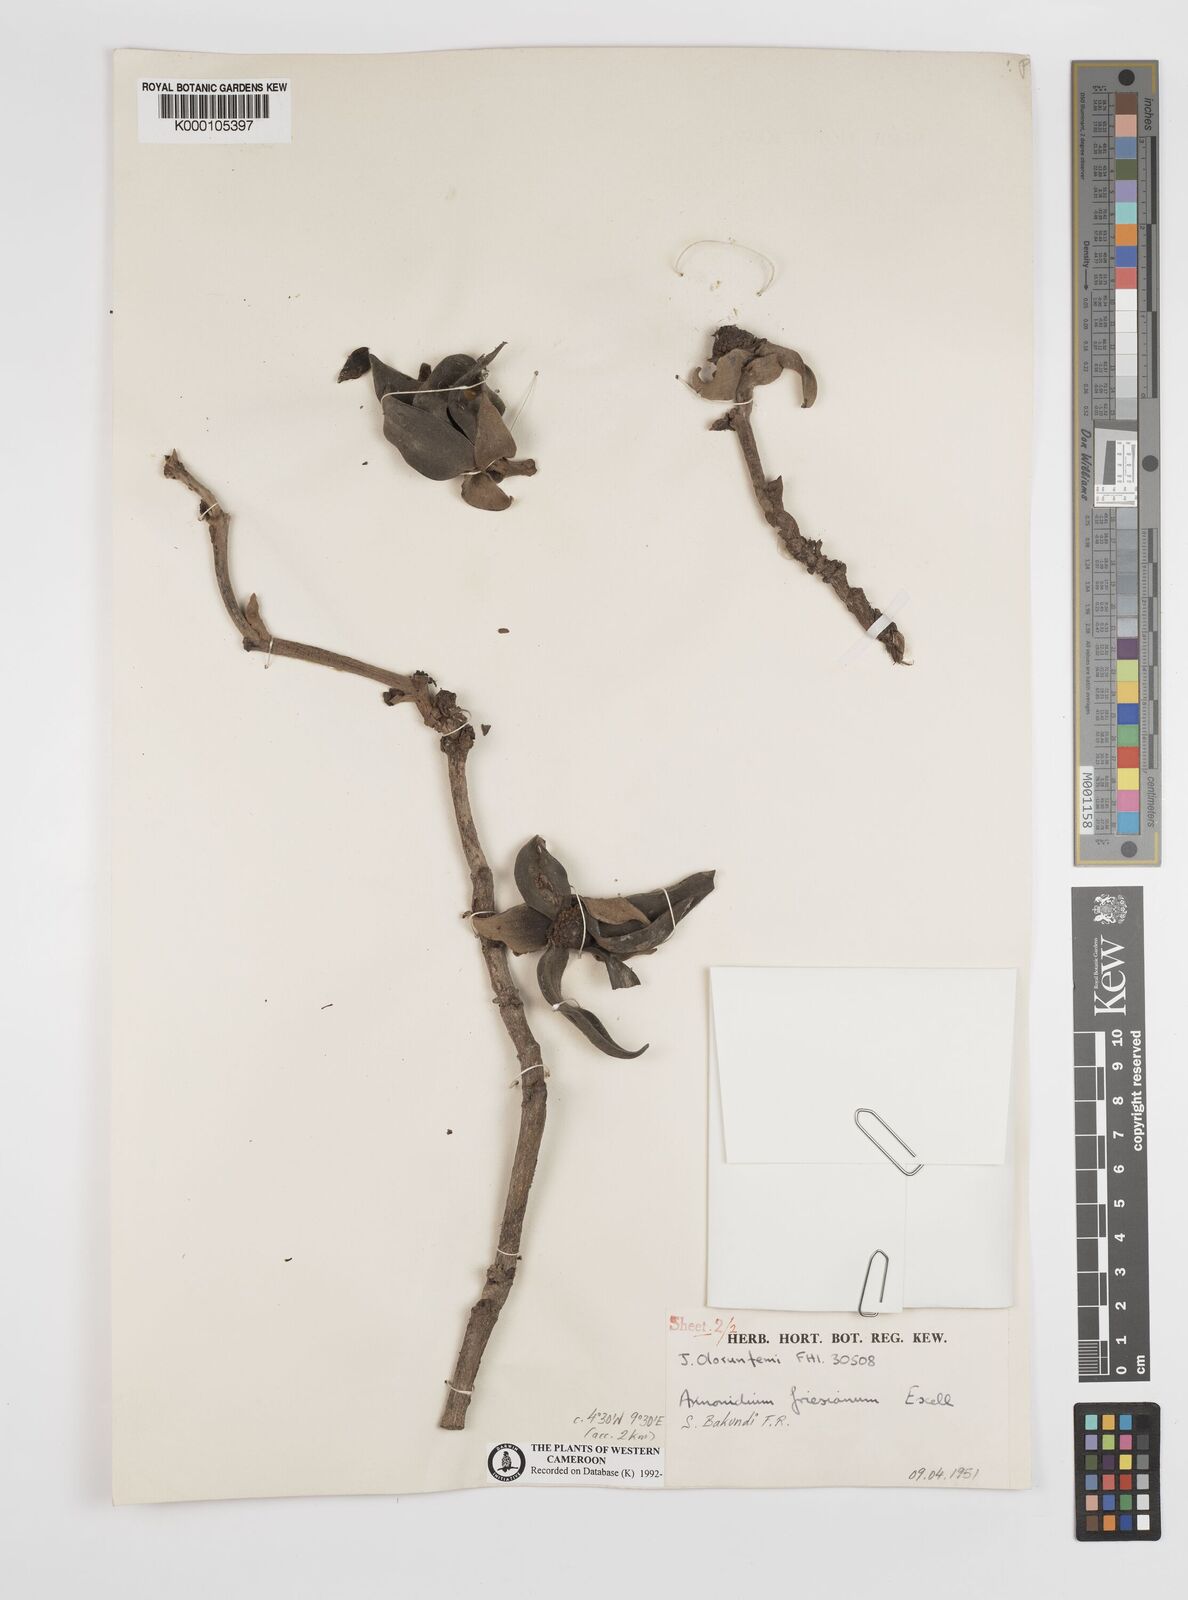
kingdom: Plantae
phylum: Tracheophyta
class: Magnoliopsida
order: Magnoliales
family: Annonaceae
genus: Anonidium
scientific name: Anonidium mannii
